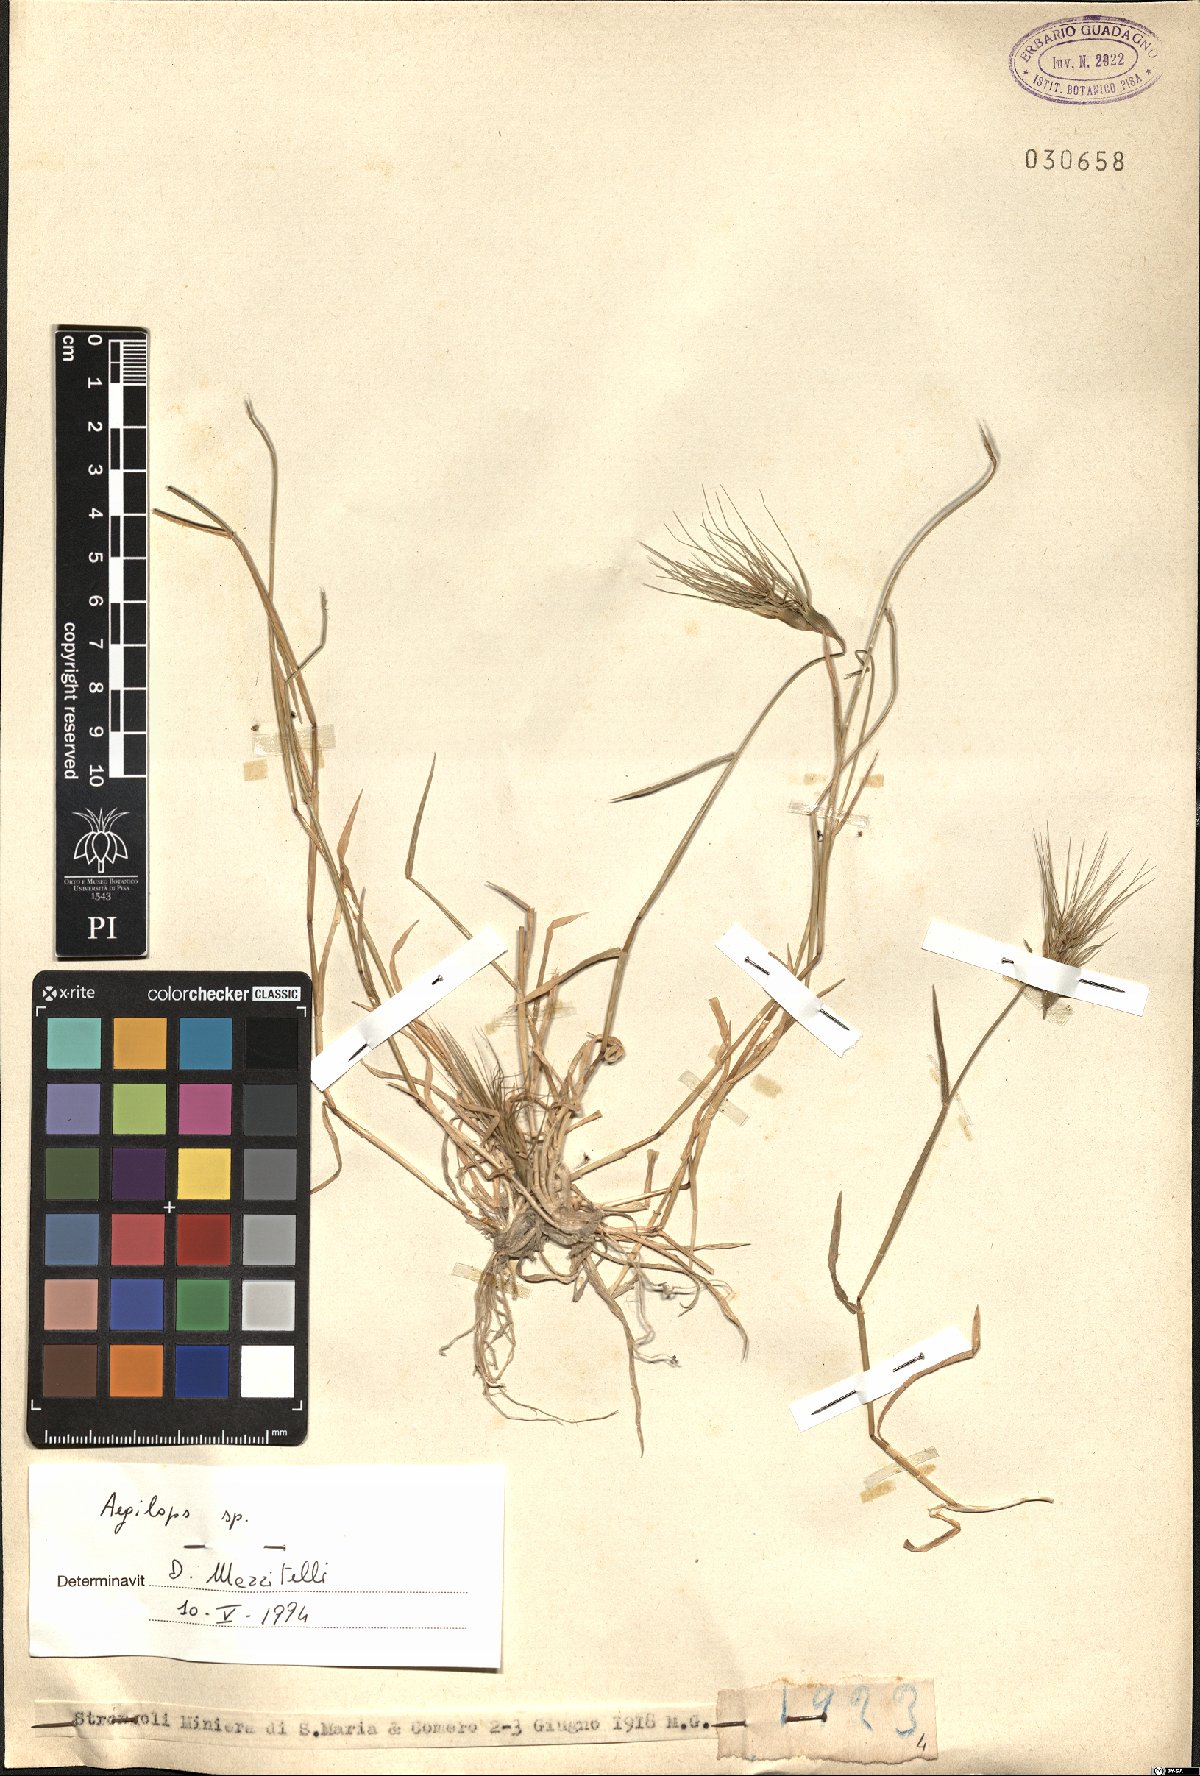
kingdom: Plantae
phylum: Tracheophyta
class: Liliopsida
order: Poales
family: Poaceae
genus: Aegilops
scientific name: Aegilops
